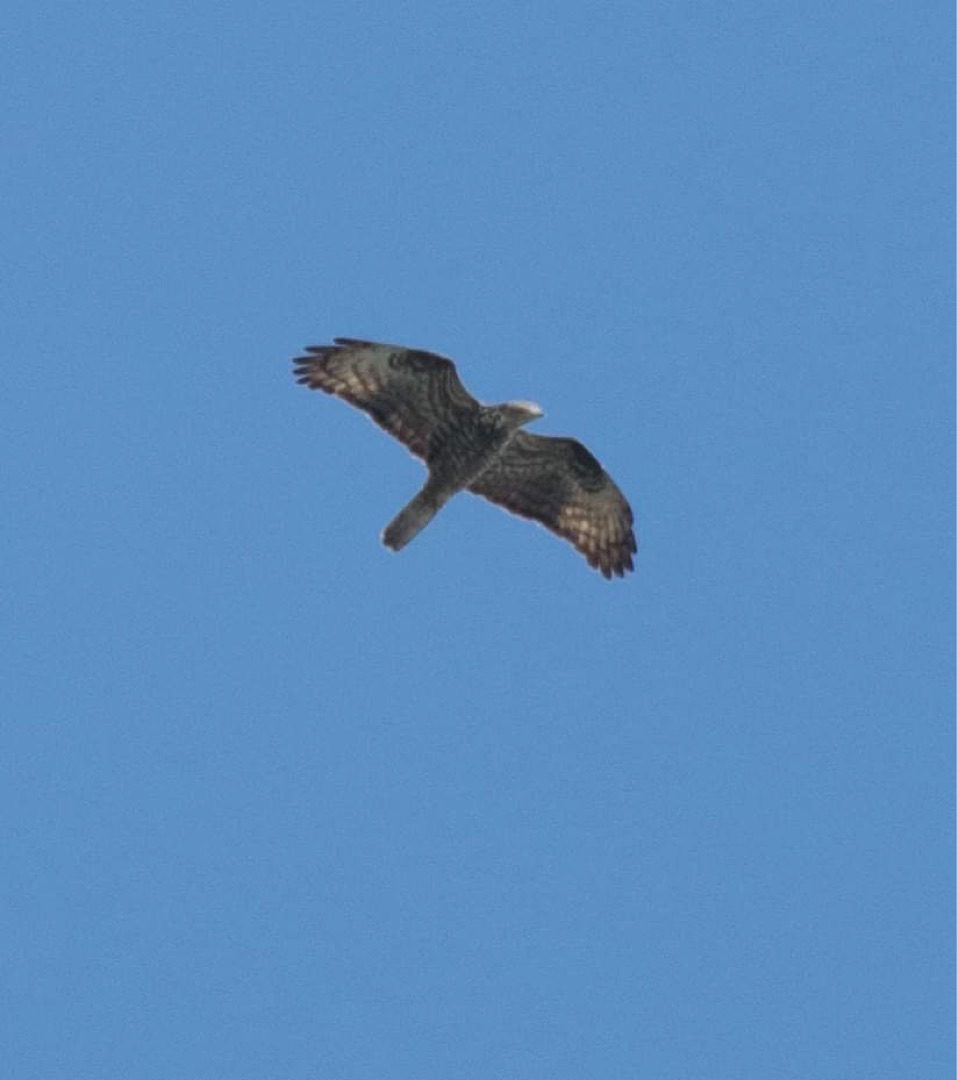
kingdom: Animalia
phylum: Chordata
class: Aves
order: Accipitriformes
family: Accipitridae
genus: Pernis
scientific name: Pernis apivorus
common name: Hvepsevåge
